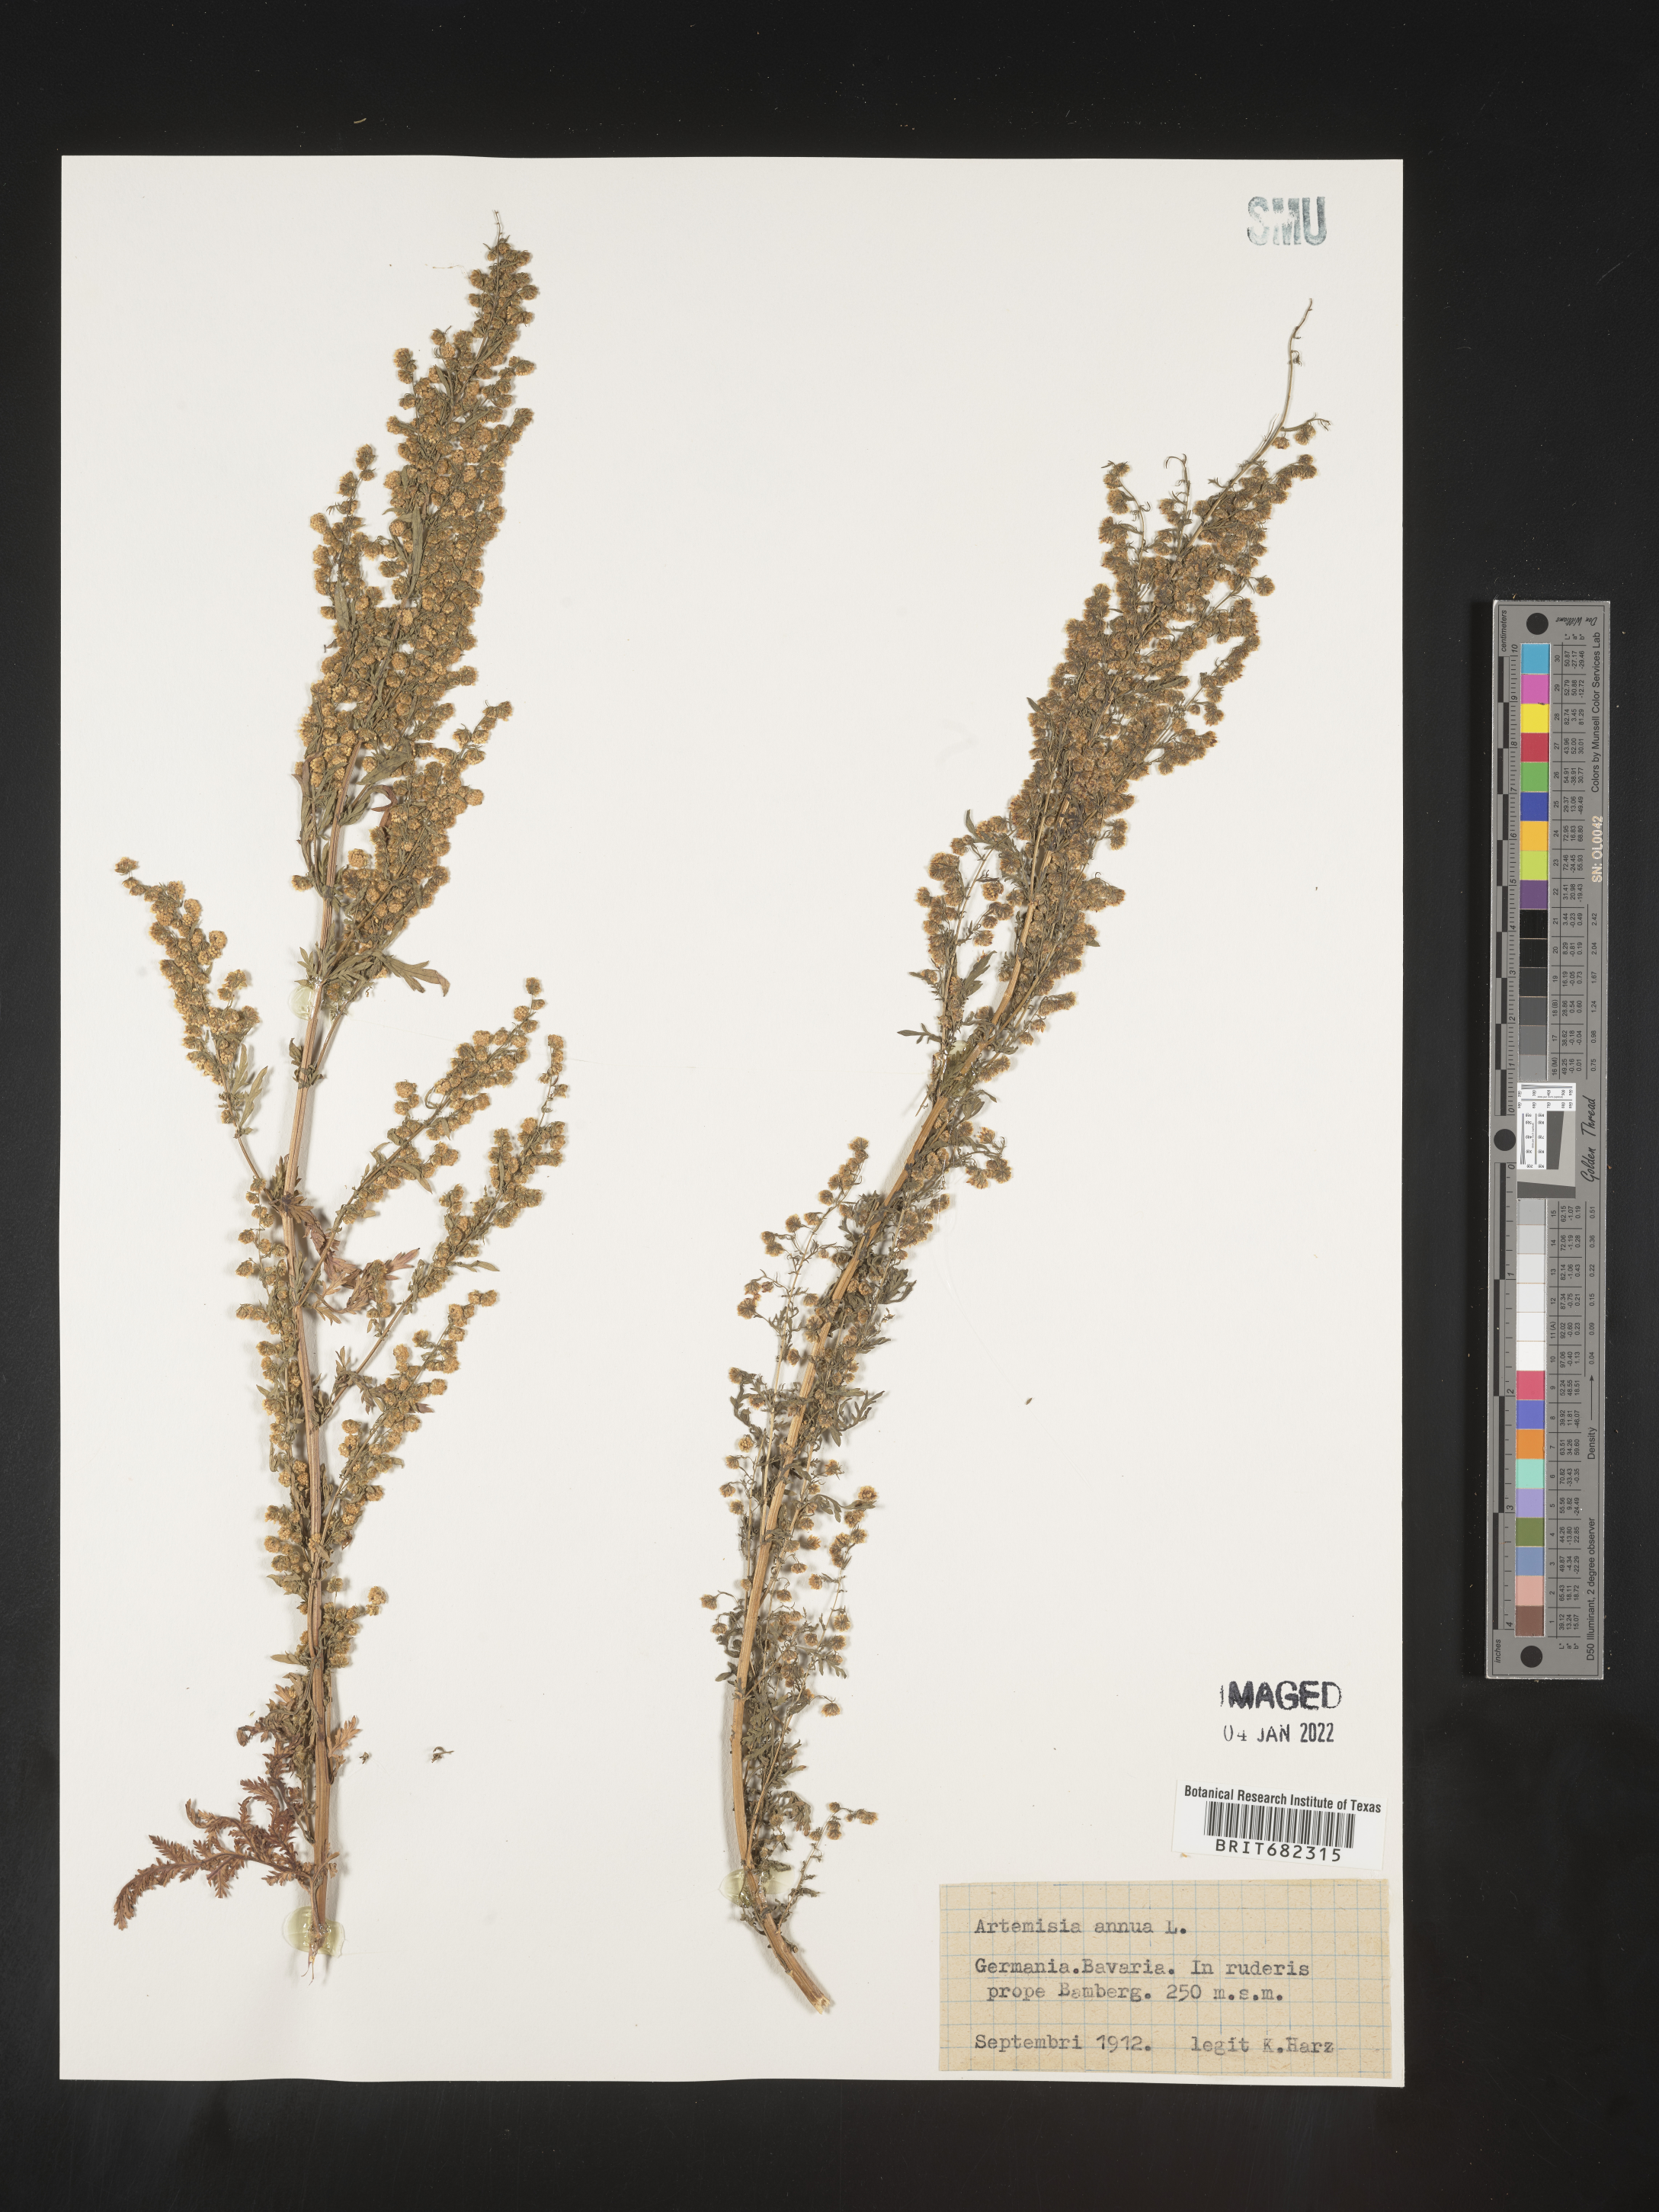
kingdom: Plantae
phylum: Tracheophyta
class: Magnoliopsida
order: Asterales
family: Asteraceae
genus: Artemisia
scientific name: Artemisia
